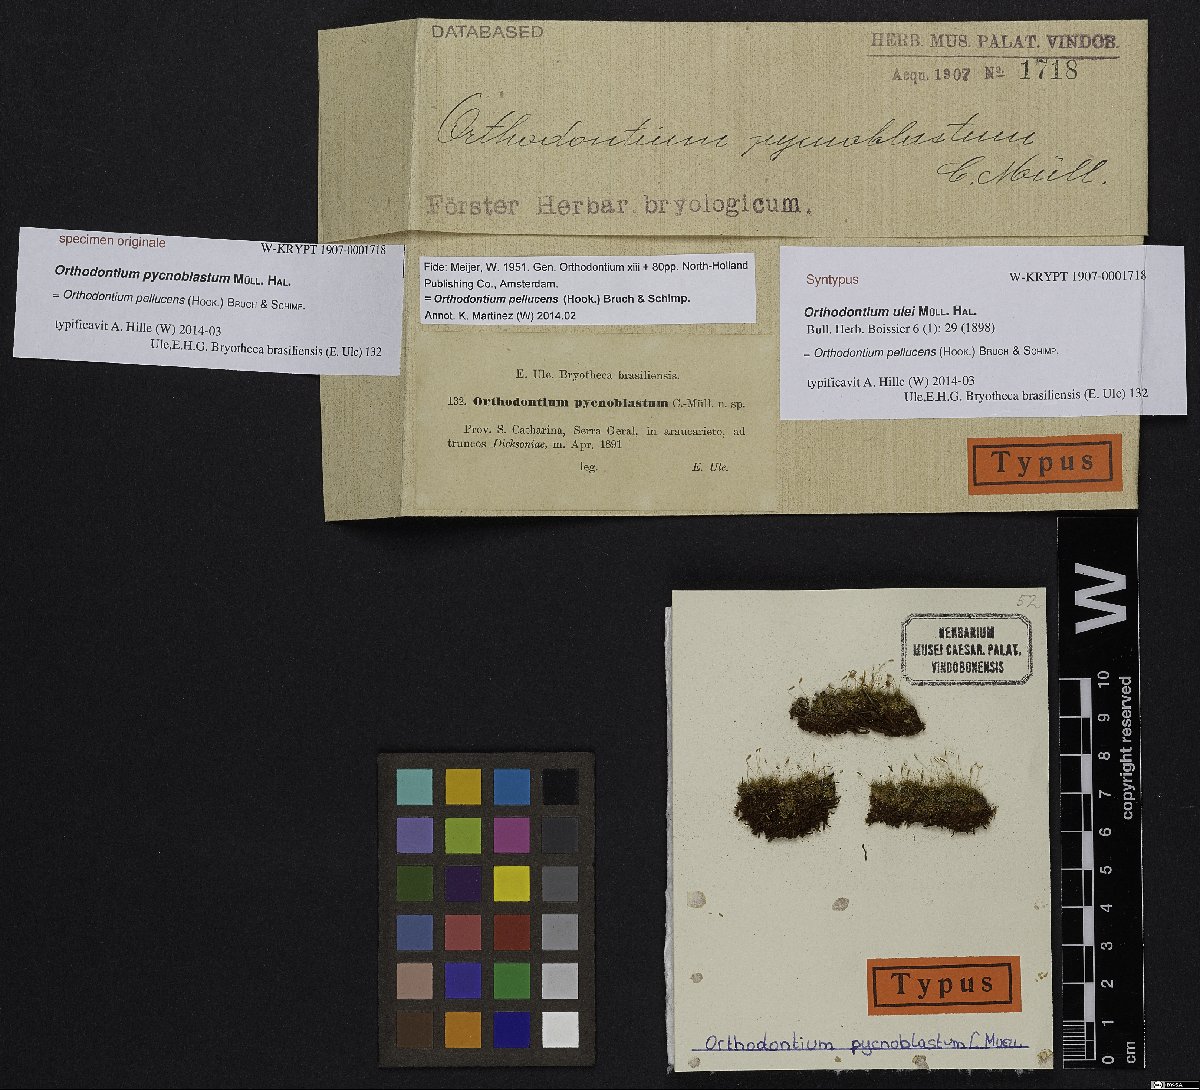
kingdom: Plantae
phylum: Bryophyta
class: Bryopsida
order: Orthodontiales
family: Orthodontiaceae
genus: Orthodontium
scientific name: Orthodontium pellucens
